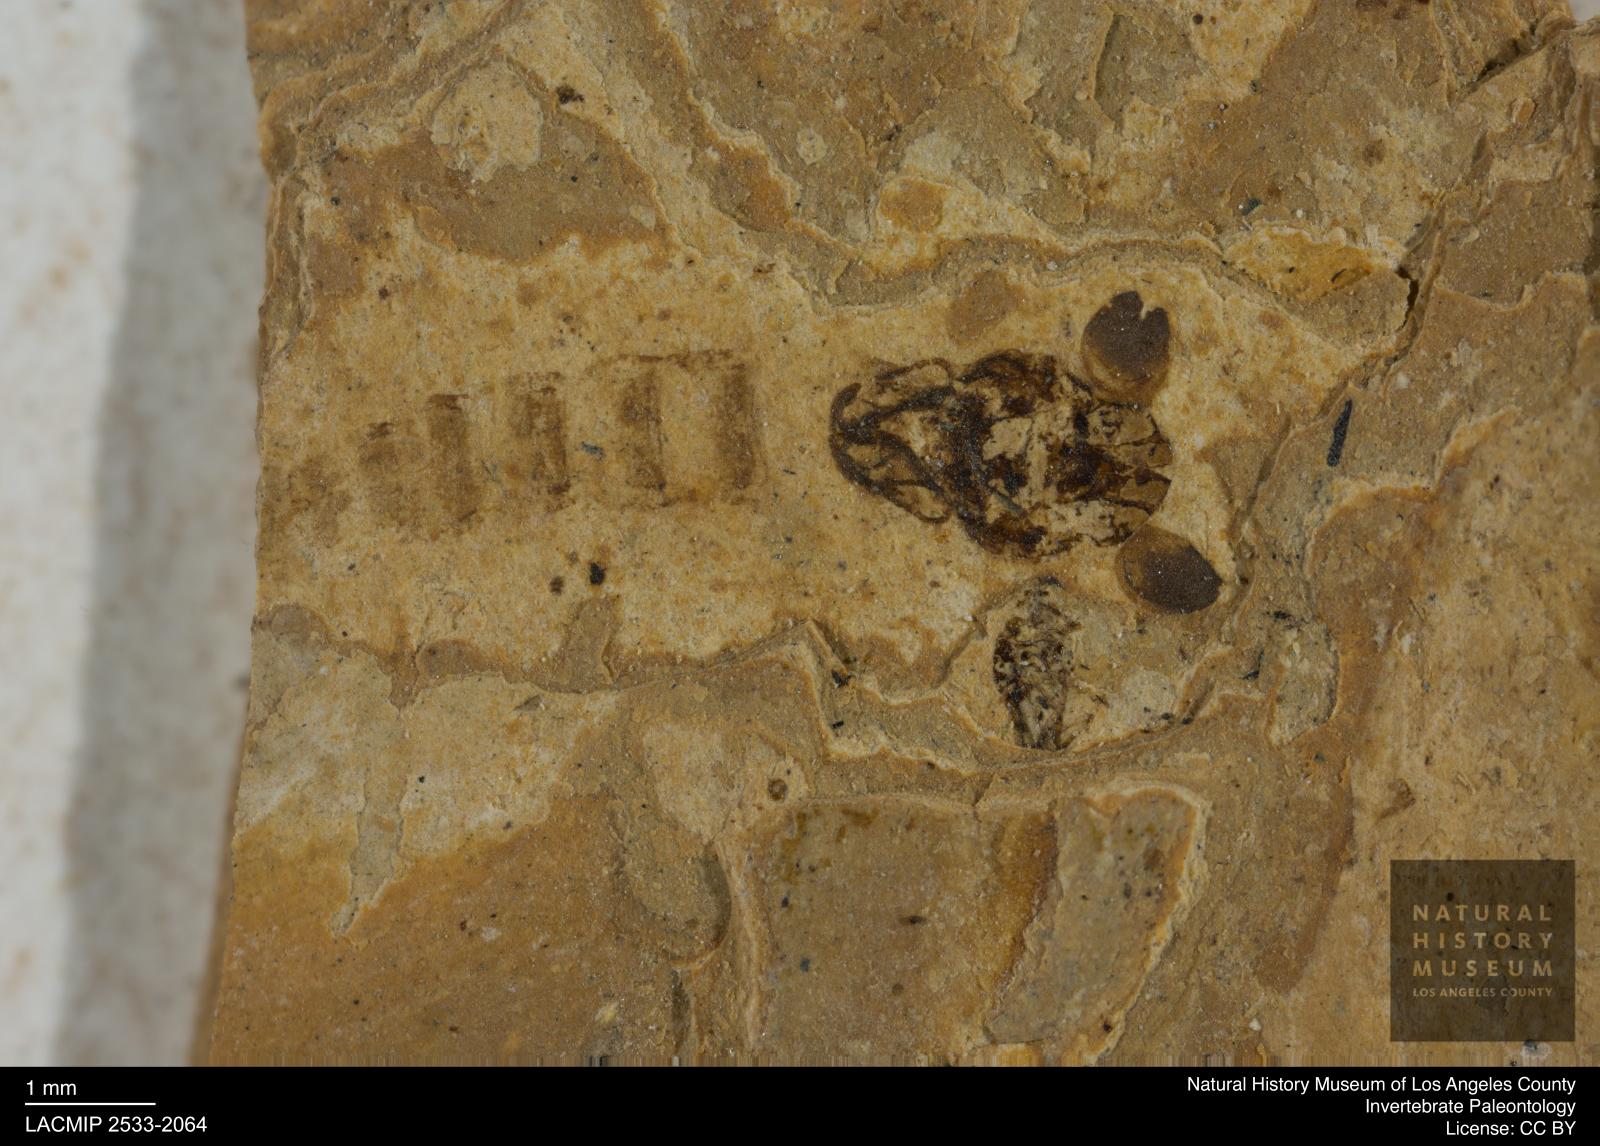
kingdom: Animalia
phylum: Arthropoda
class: Insecta
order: Diptera
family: Chironomidae
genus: Pelopiina
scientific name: Pelopiina
